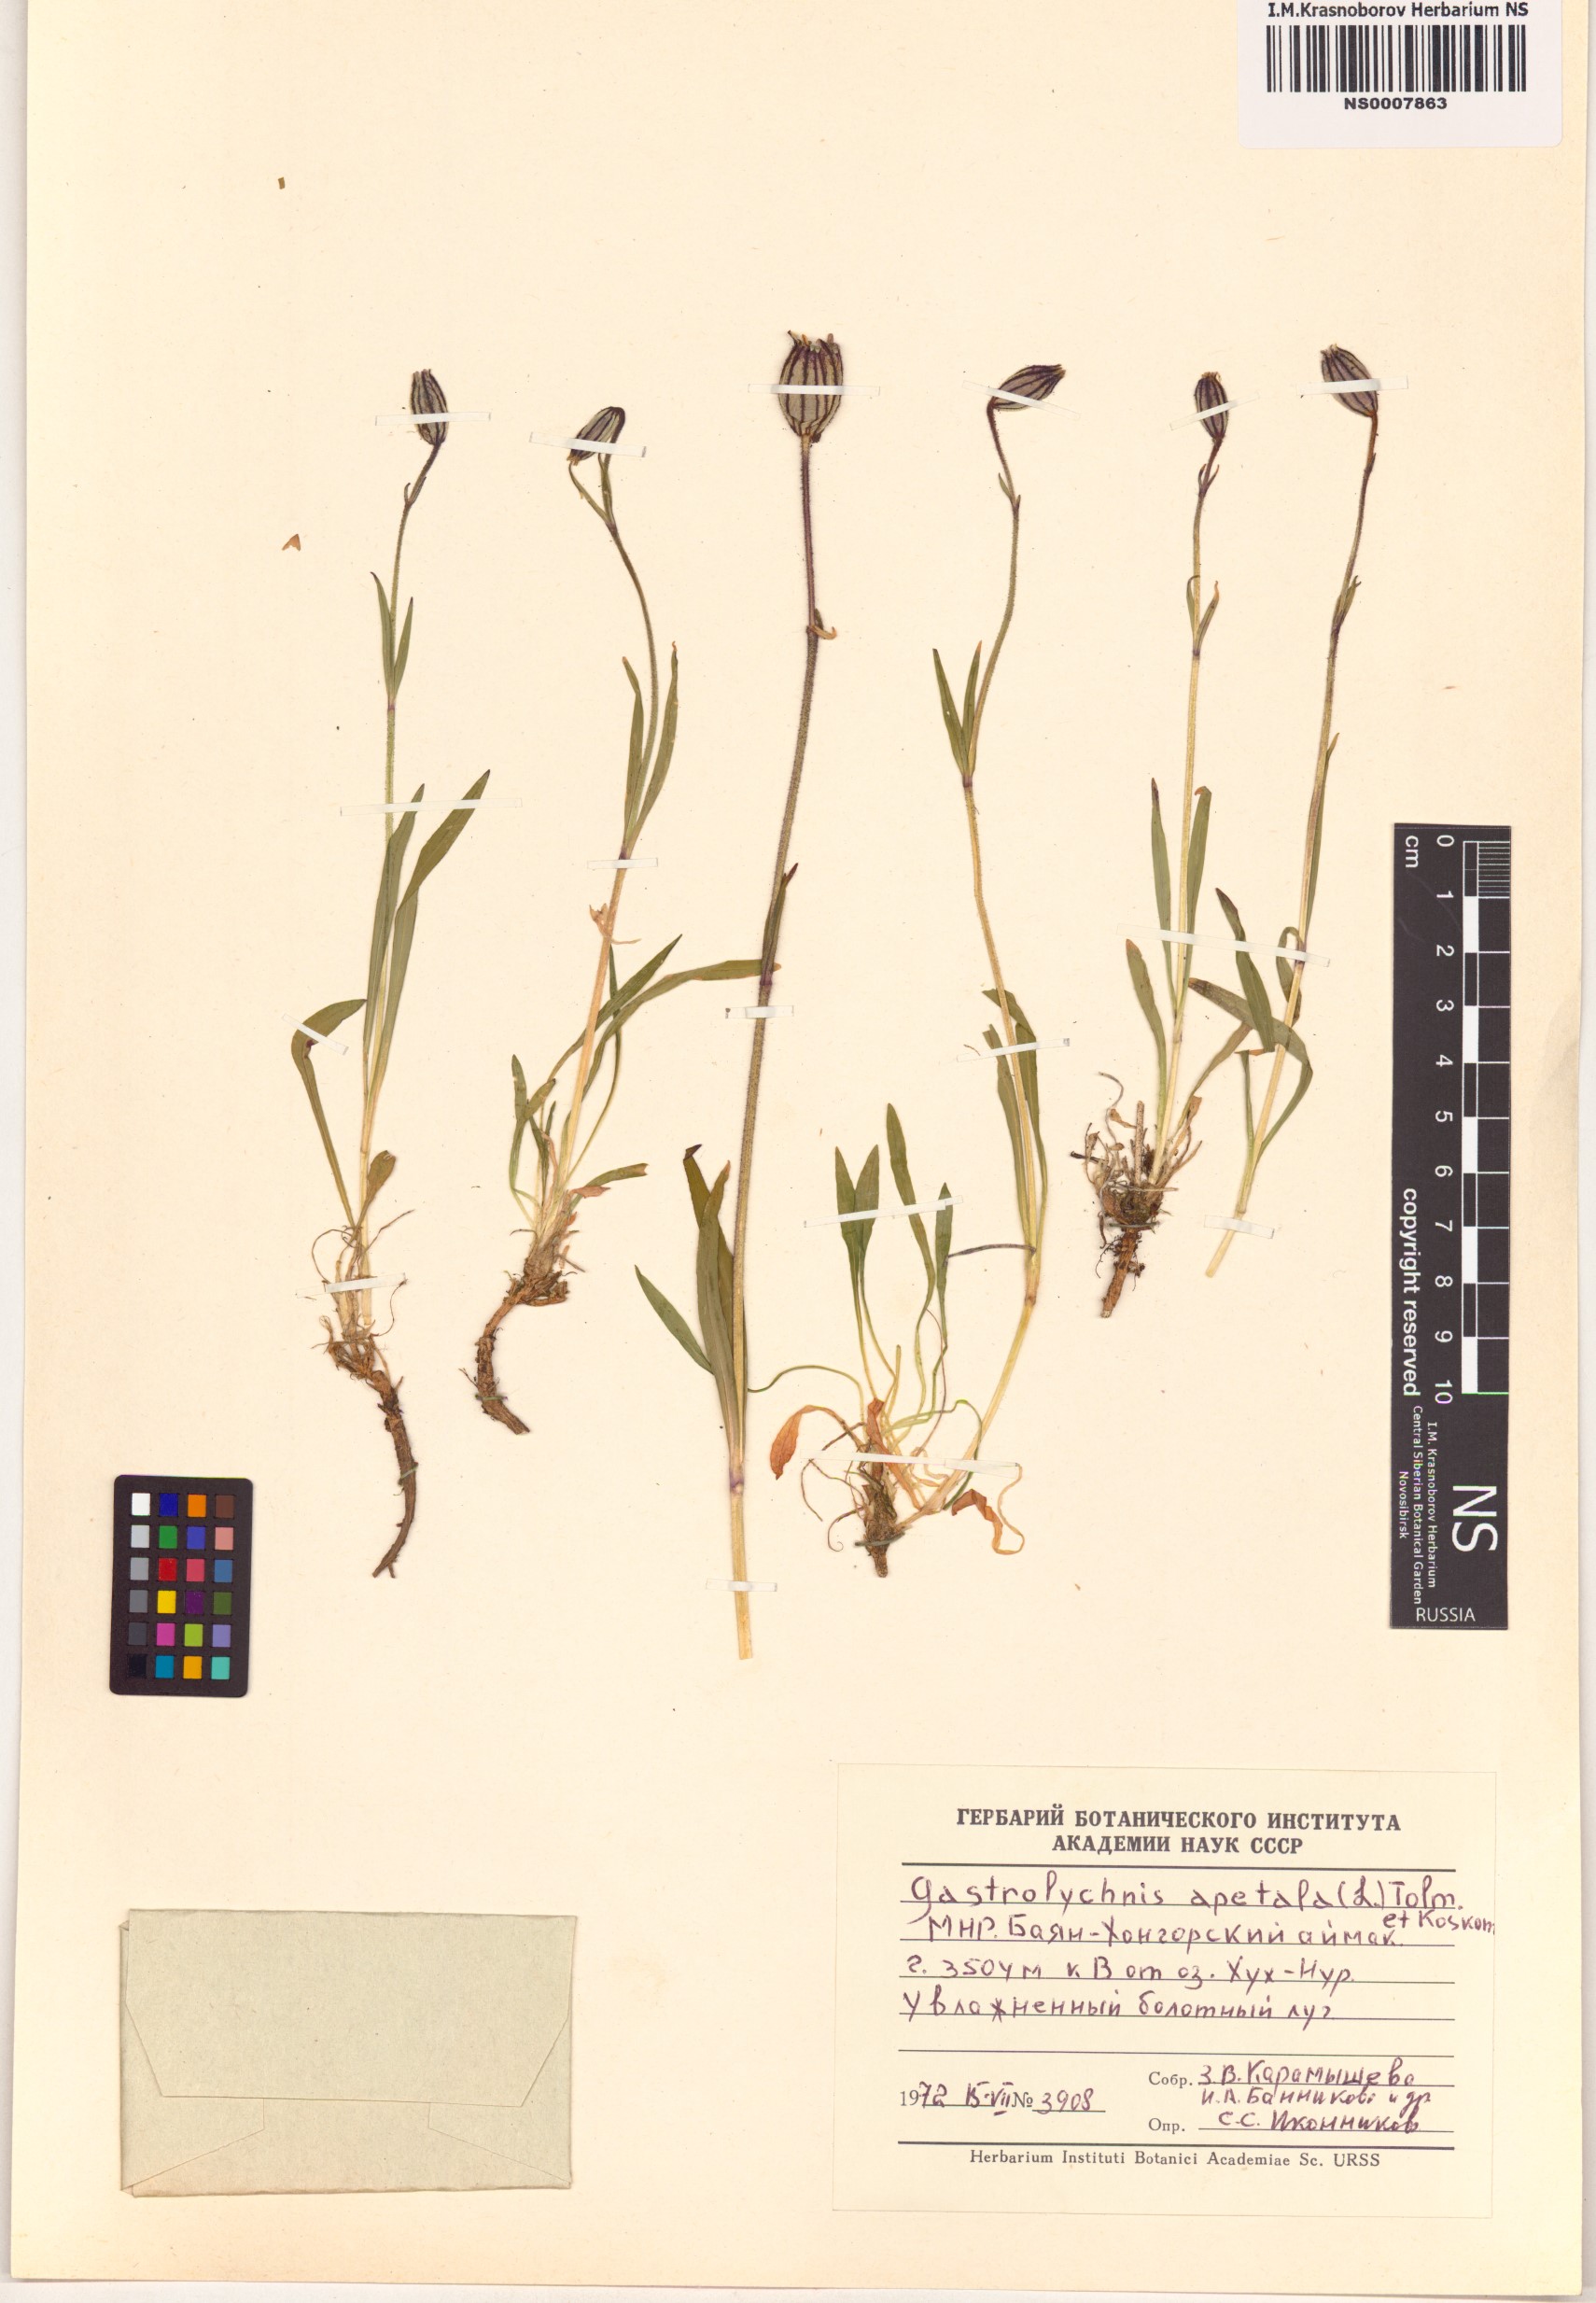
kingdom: Plantae
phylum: Tracheophyta
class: Magnoliopsida
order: Caryophyllales
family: Caryophyllaceae
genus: Silene
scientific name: Silene wahlbergella
